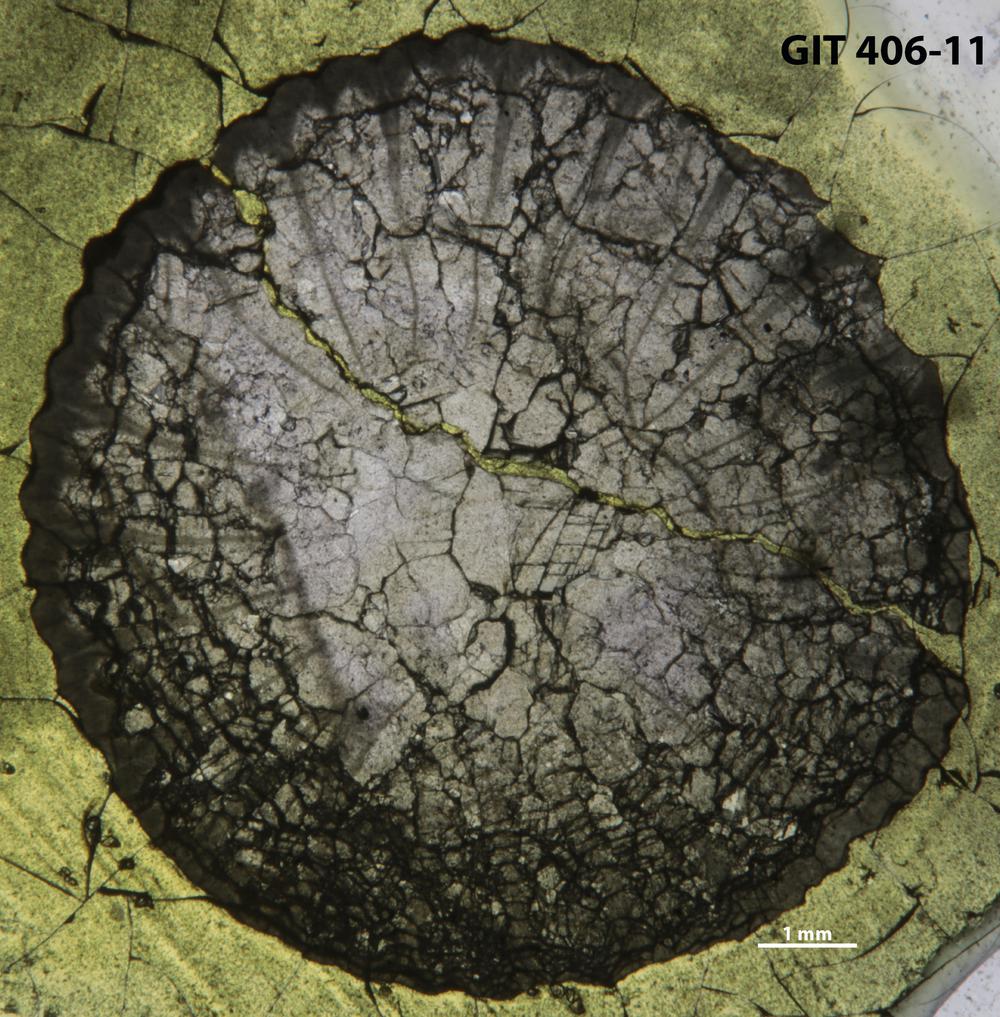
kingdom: Animalia
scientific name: Animalia
